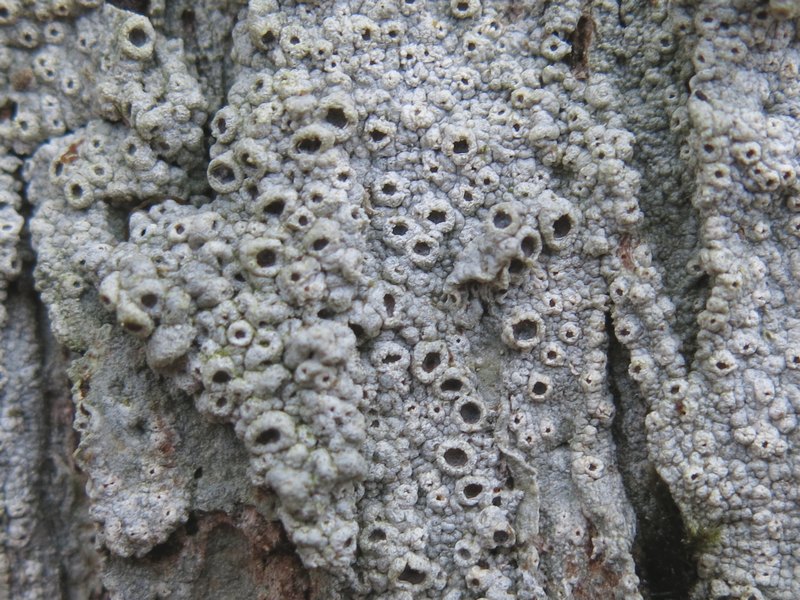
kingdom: Fungi
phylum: Ascomycota
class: Lecanoromycetes
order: Ostropales
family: Graphidaceae
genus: Thelotrema
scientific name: Thelotrema lepadinum
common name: almindelig slørkantlav
